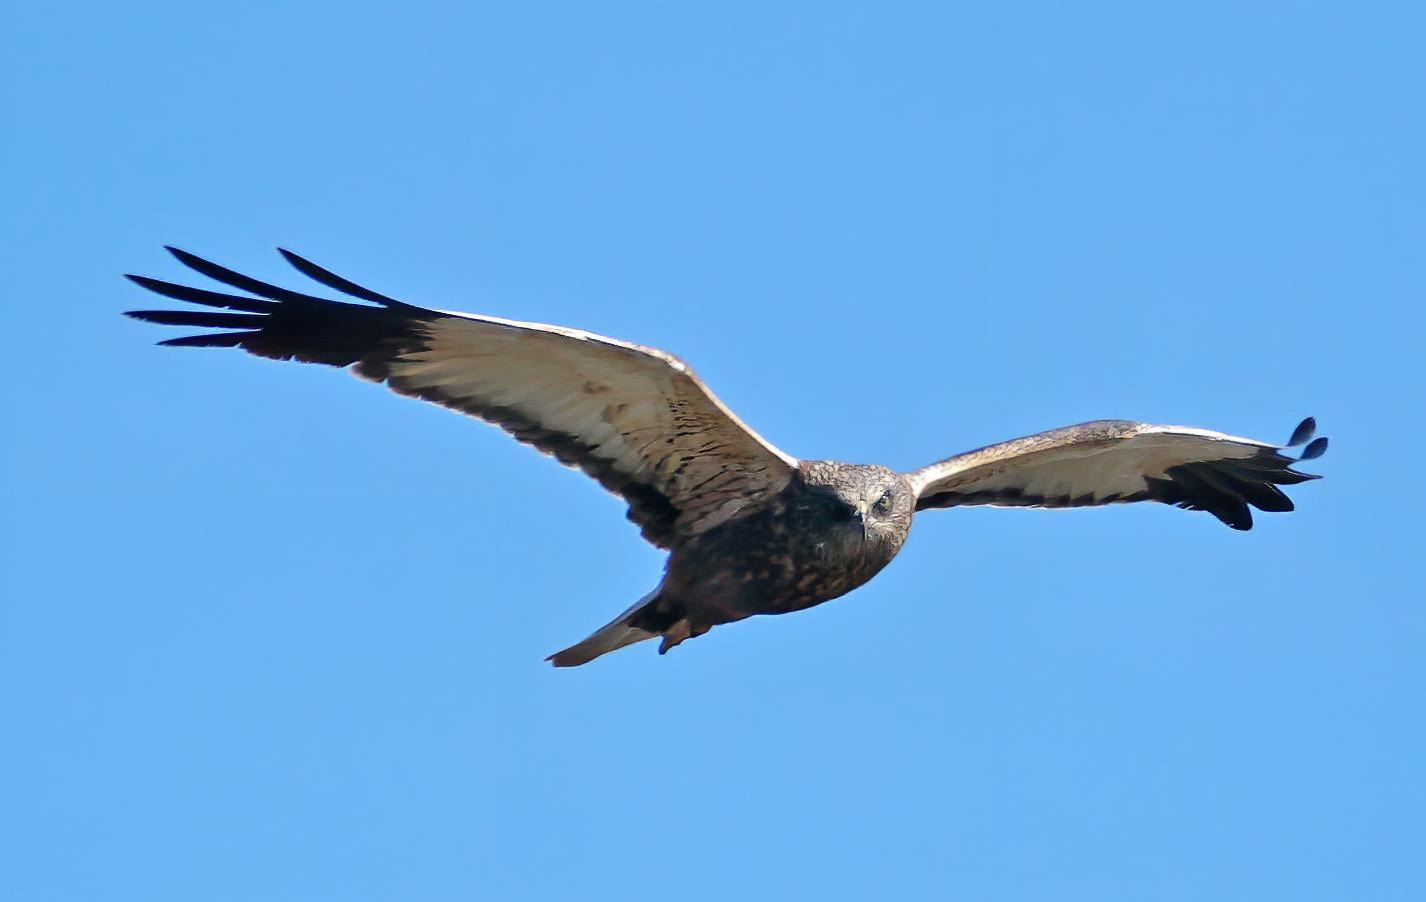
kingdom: Animalia
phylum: Chordata
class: Aves
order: Accipitriformes
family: Accipitridae
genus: Circus
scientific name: Circus aeruginosus
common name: Rørhøg
